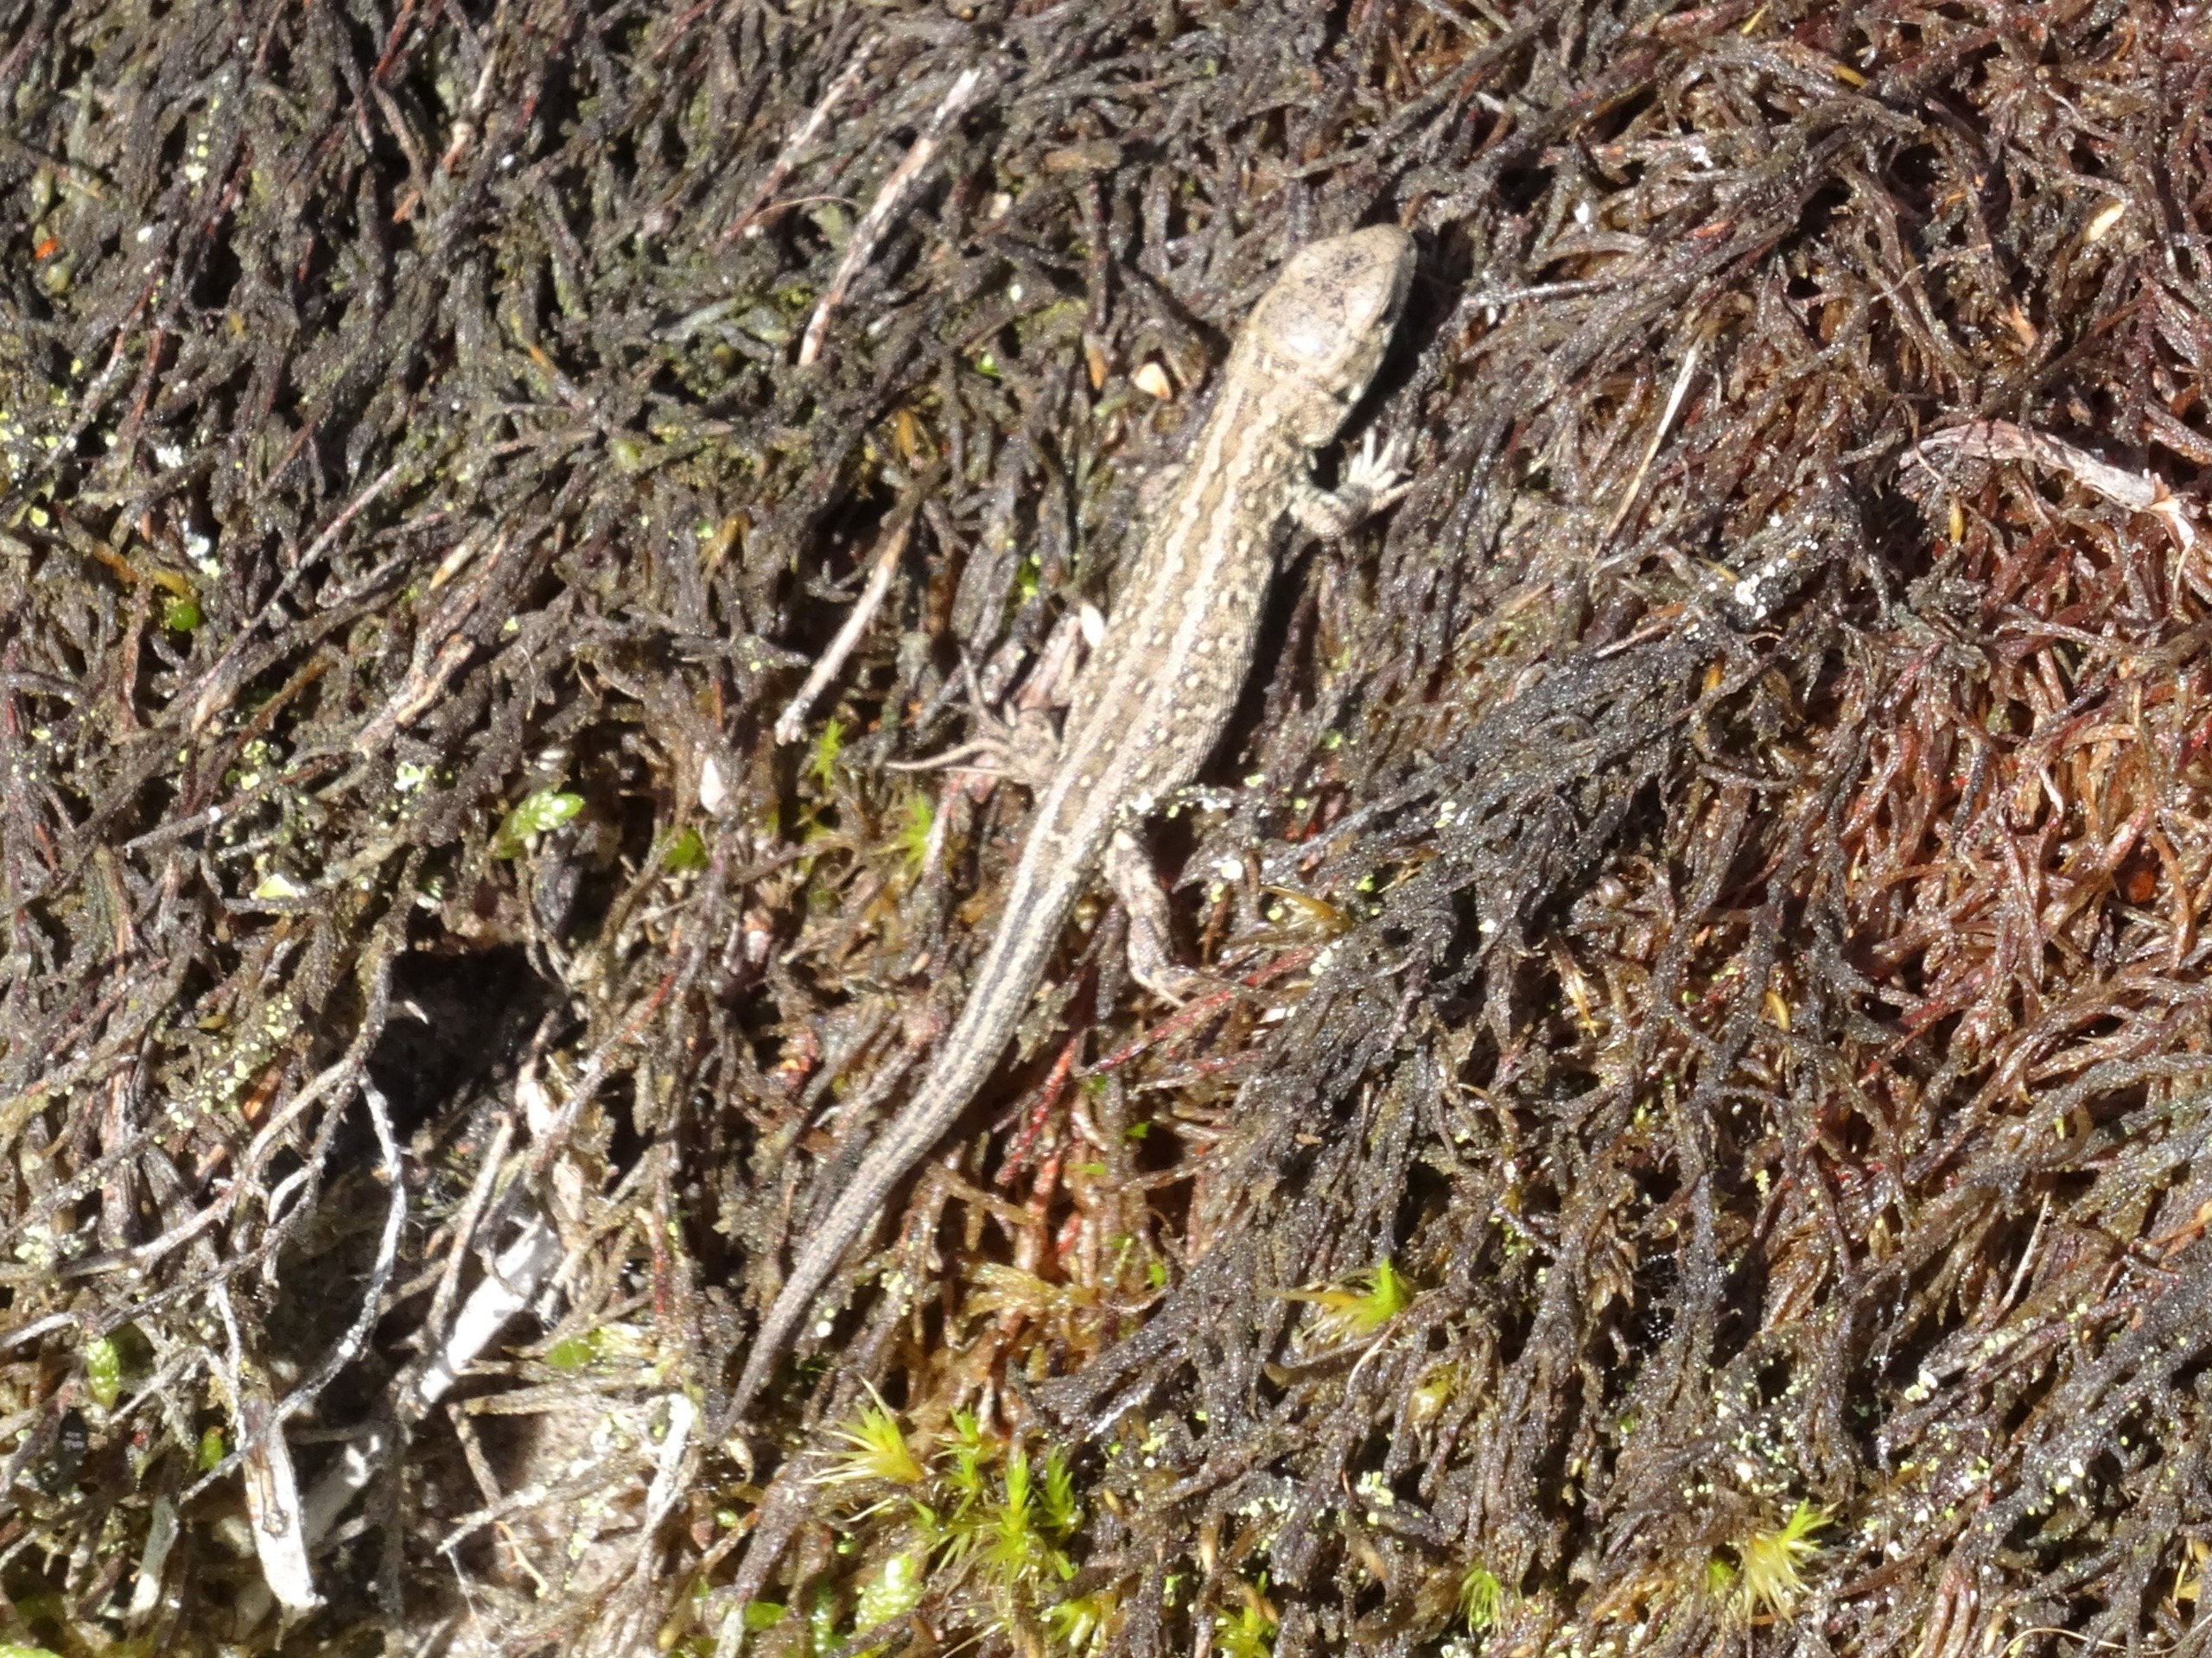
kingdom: Animalia
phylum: Chordata
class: Squamata
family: Lacertidae
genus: Lacerta
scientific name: Lacerta agilis
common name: Markfirben
